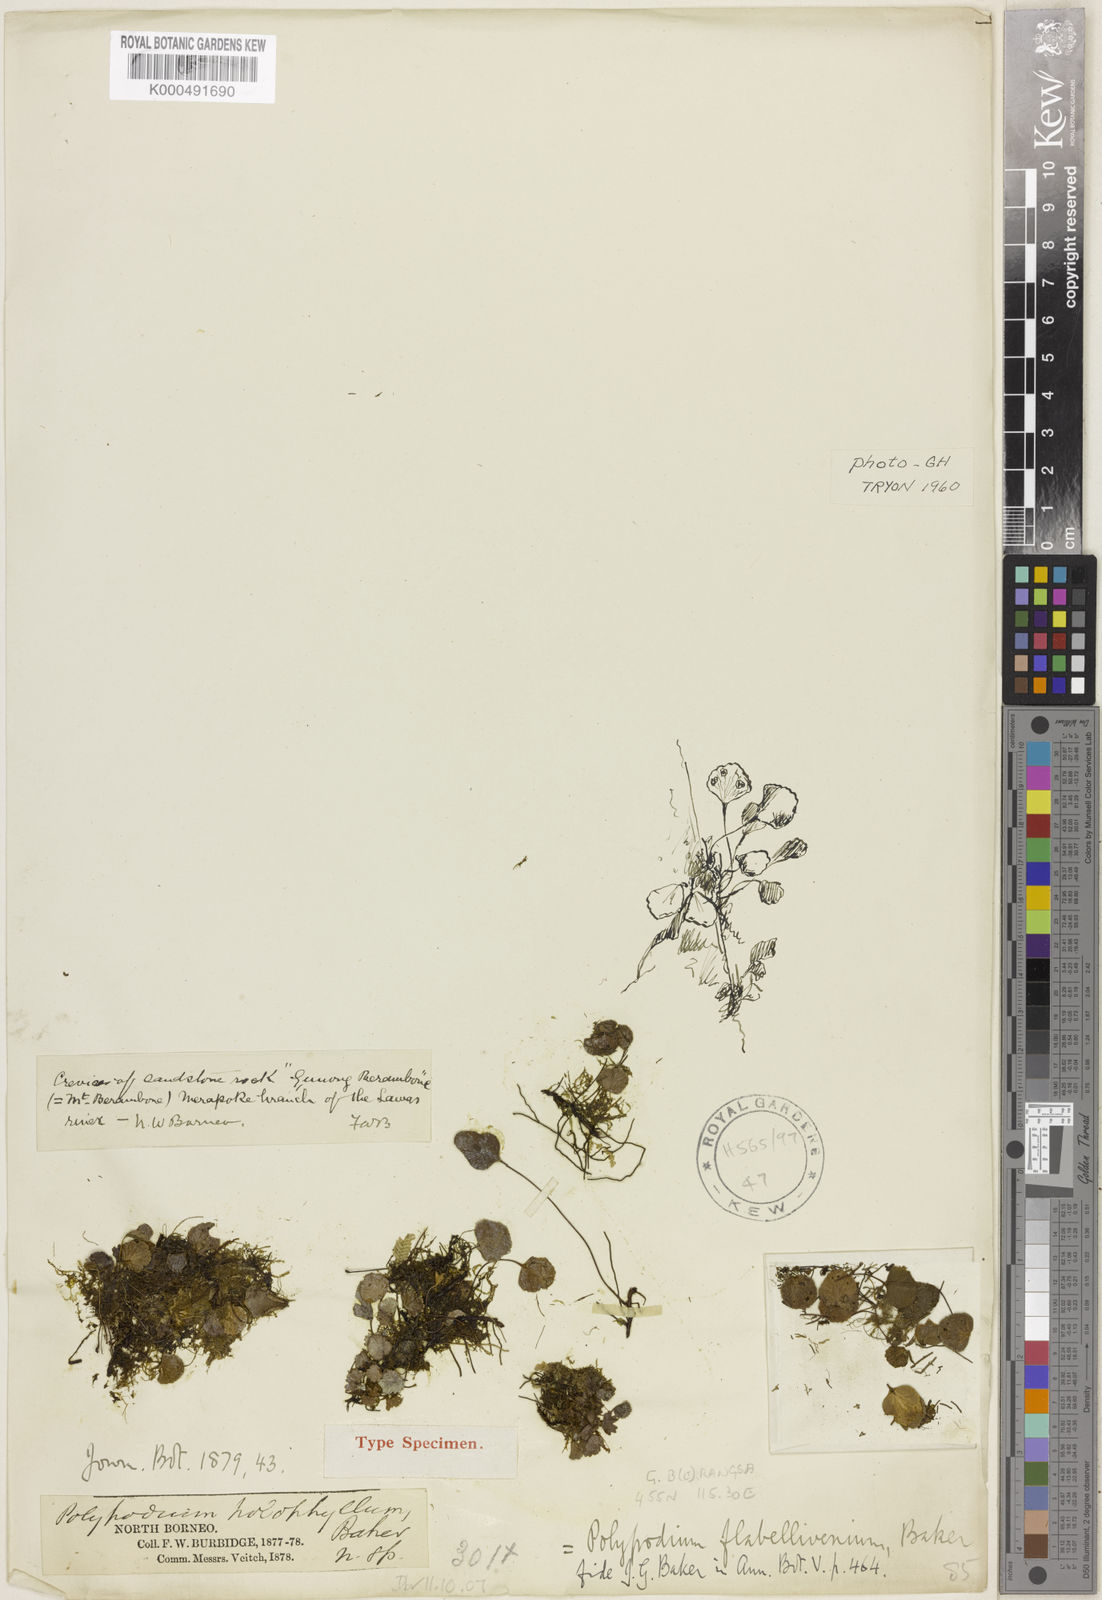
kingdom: Plantae
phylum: Tracheophyta
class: Polypodiopsida
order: Polypodiales
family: Pteridaceae
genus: Taenitis
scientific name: Taenitis flabellivenia
